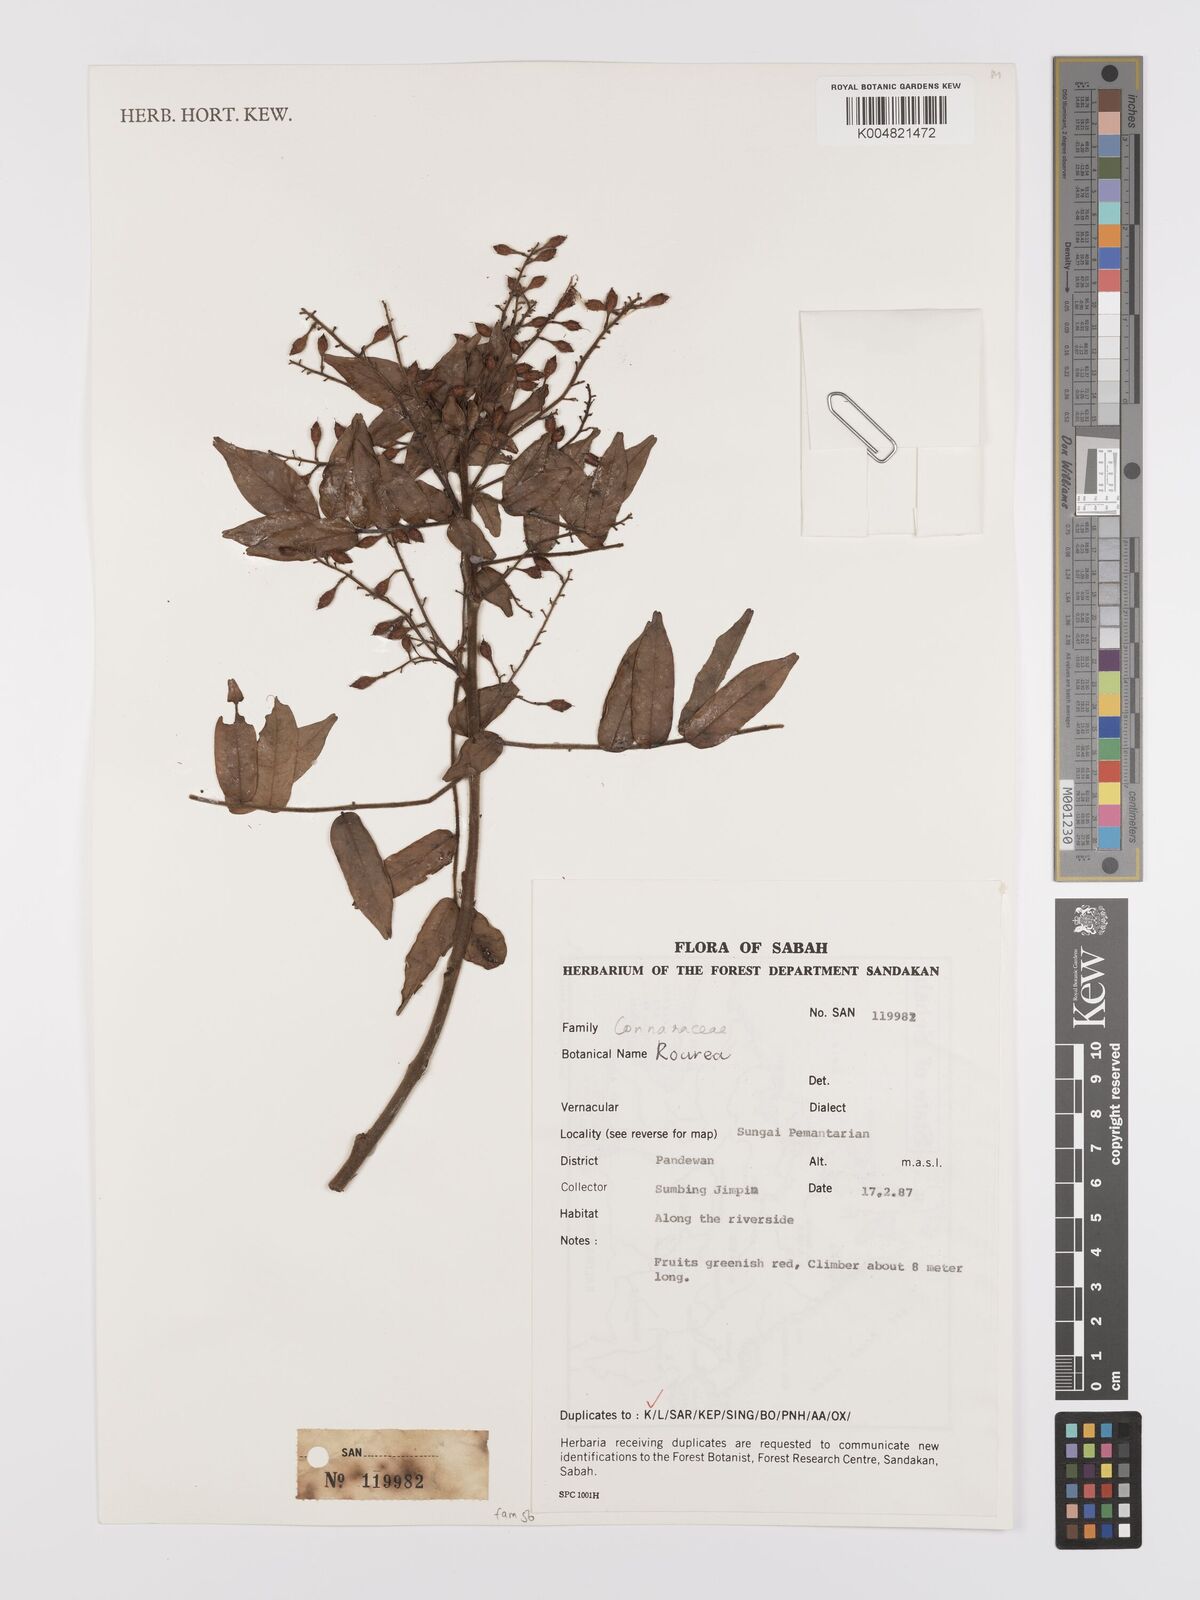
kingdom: Plantae
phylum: Tracheophyta
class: Magnoliopsida
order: Oxalidales
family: Connaraceae
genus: Rourea
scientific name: Rourea
